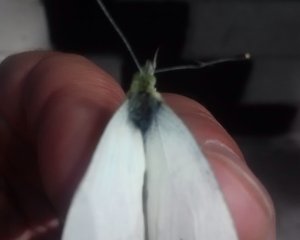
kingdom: Animalia
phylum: Arthropoda
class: Insecta
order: Lepidoptera
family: Pieridae
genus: Pieris
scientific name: Pieris rapae
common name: Cabbage White
